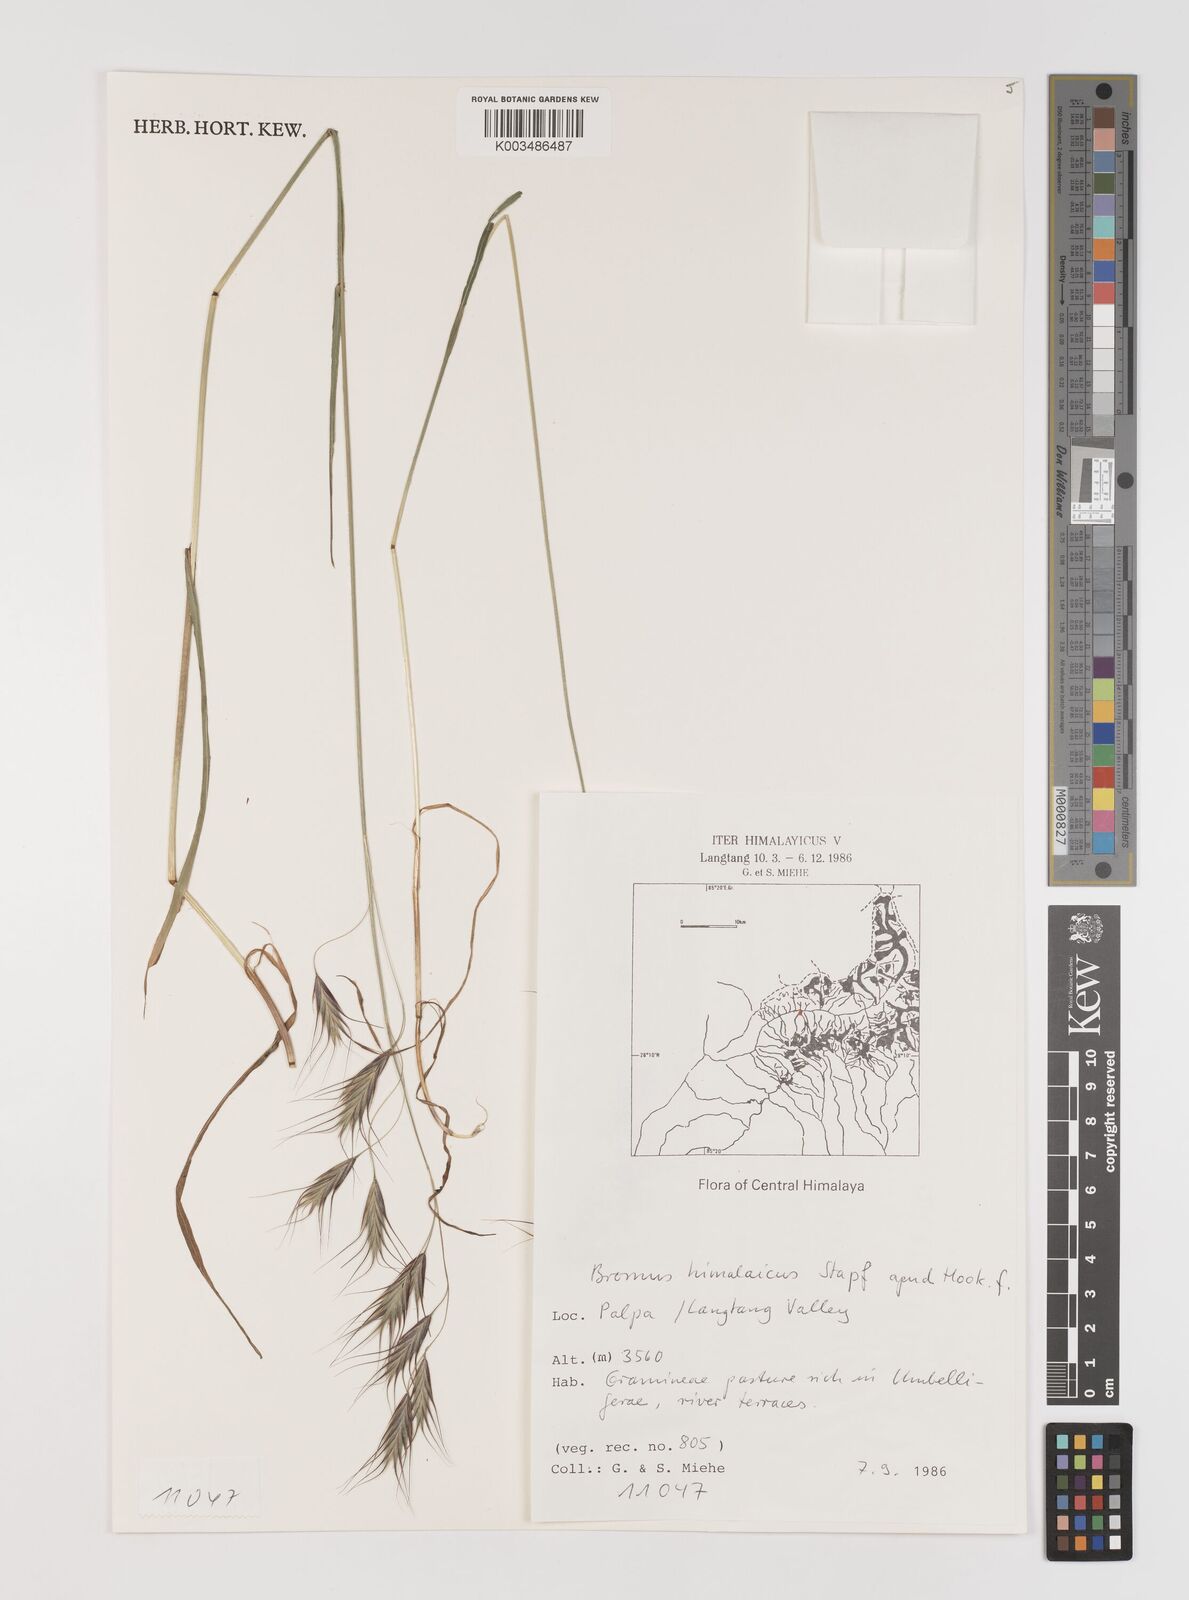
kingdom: Plantae
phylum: Tracheophyta
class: Liliopsida
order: Poales
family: Poaceae
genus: Bromus
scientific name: Bromus himalaicus
